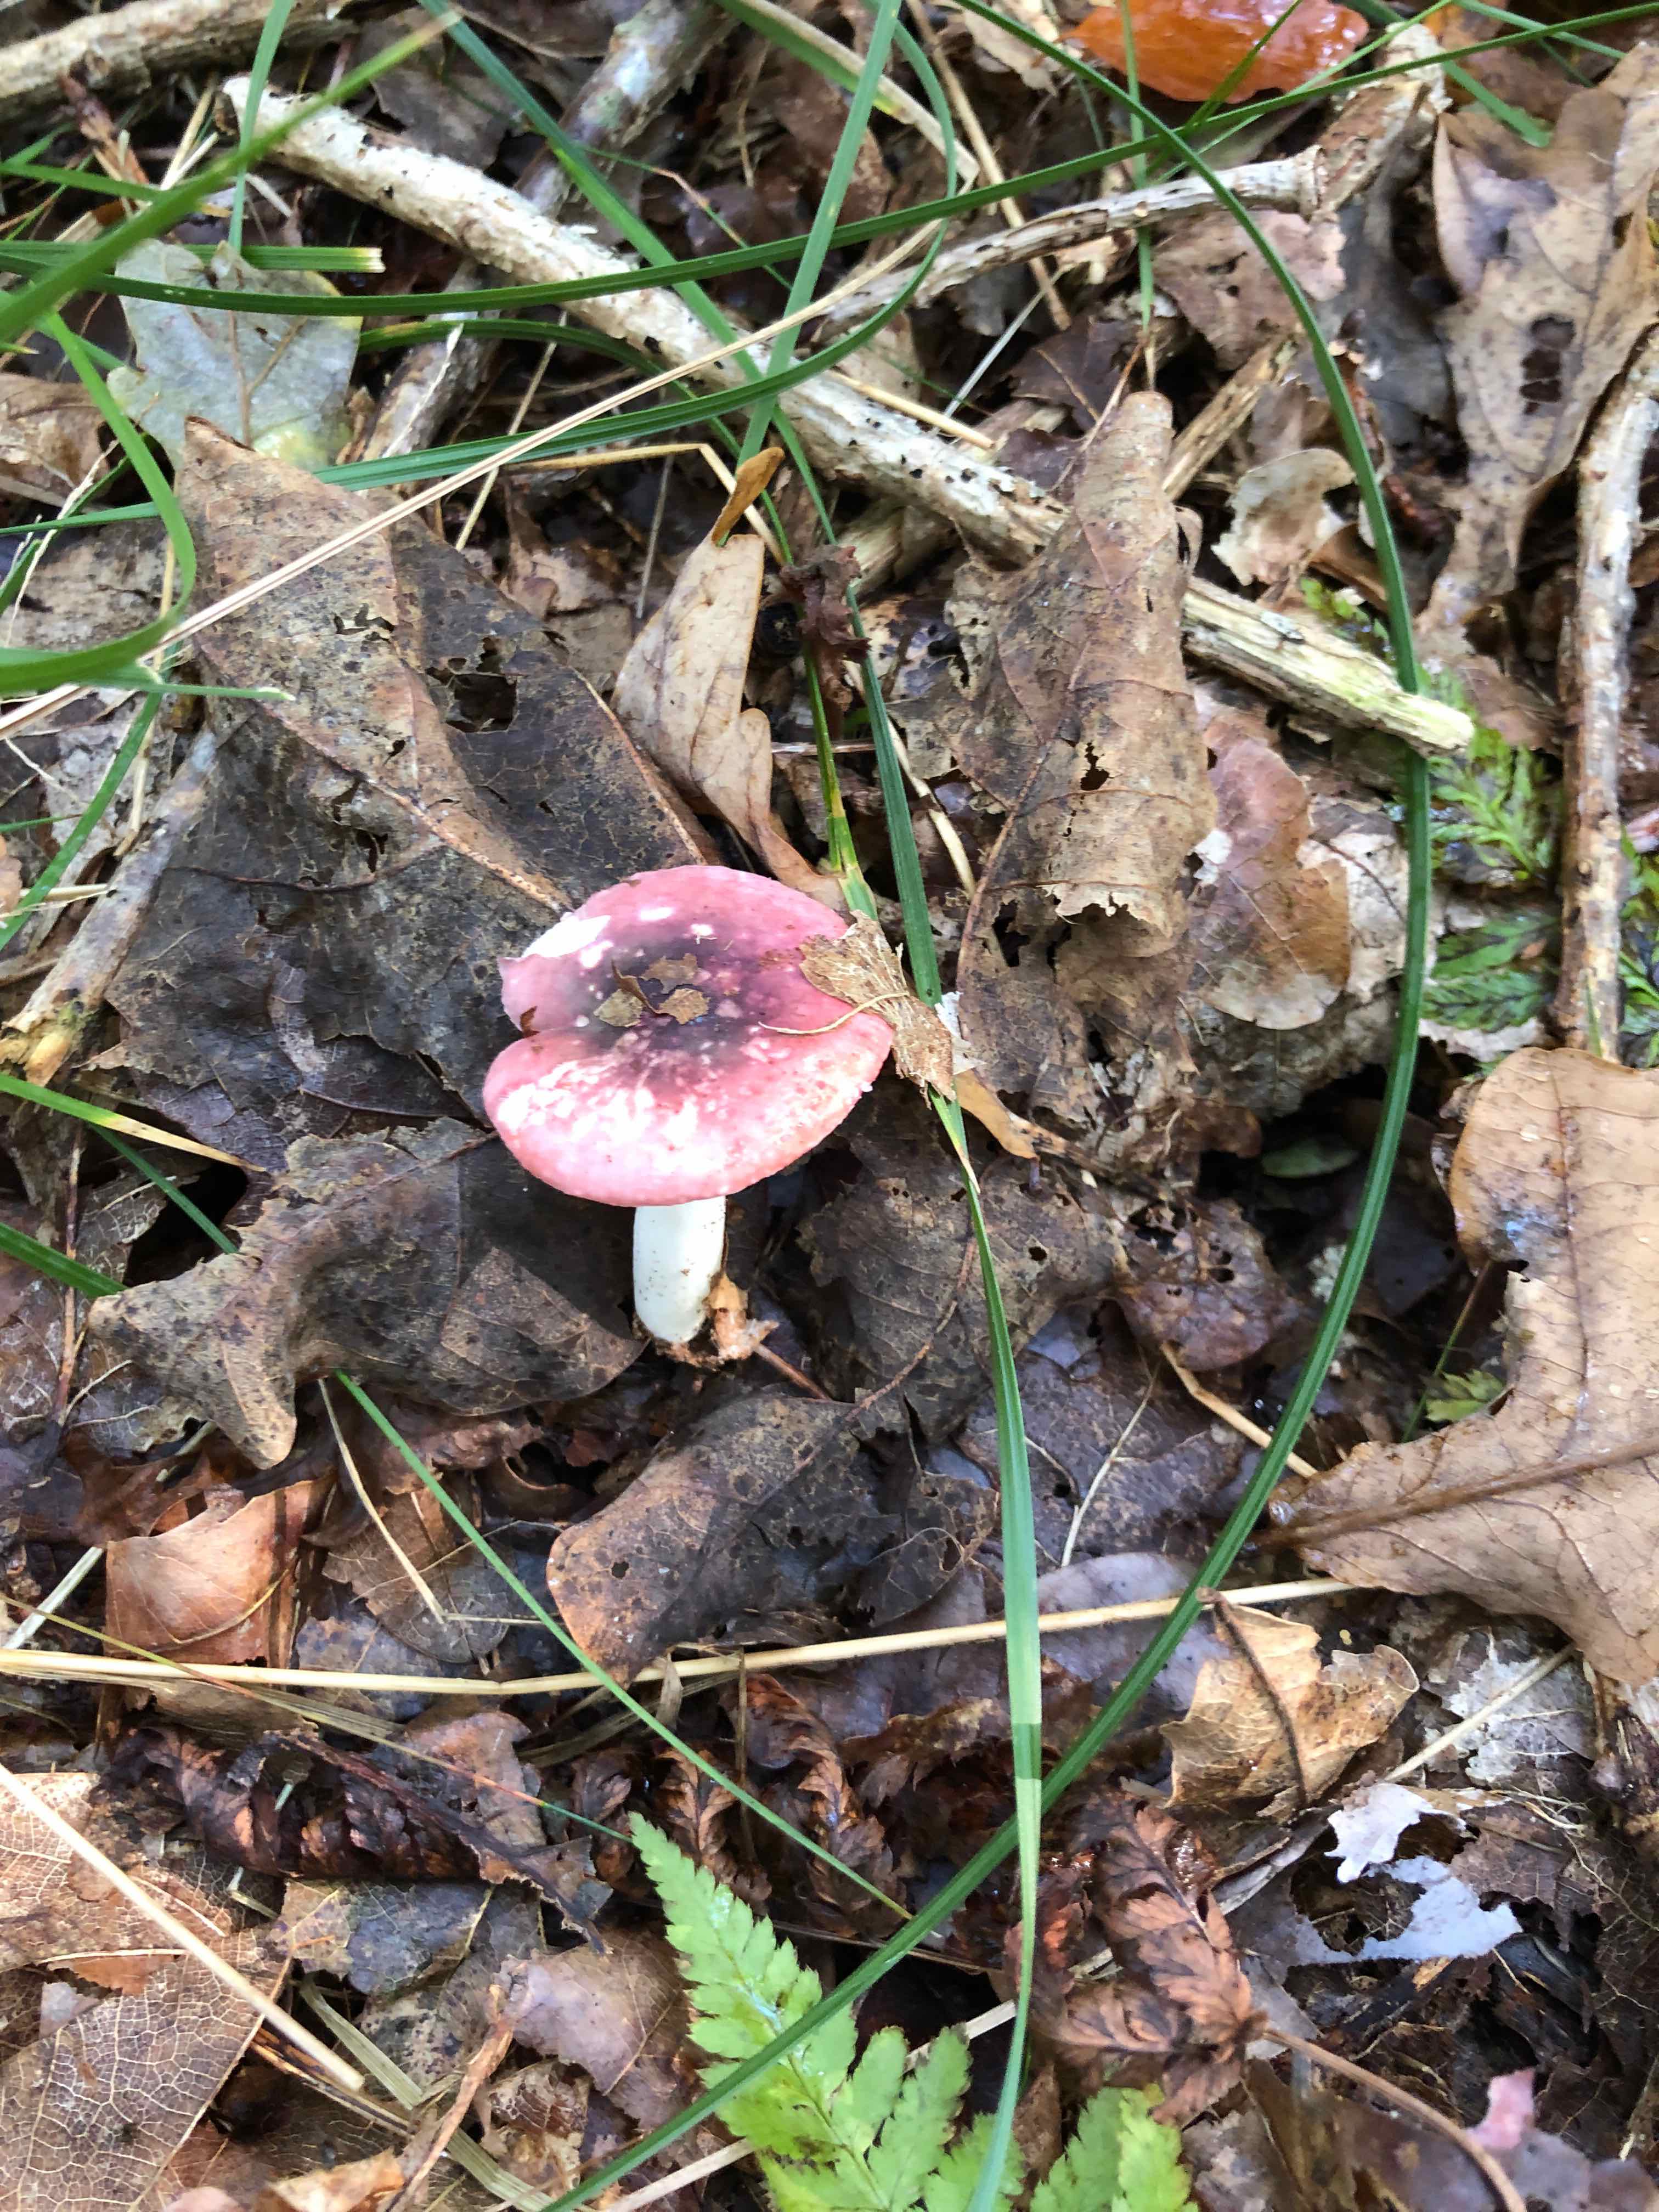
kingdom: Fungi
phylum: Basidiomycota
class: Agaricomycetes
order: Russulales
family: Russulaceae
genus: Russula
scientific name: Russula fragilis
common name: savbladet skørhat
